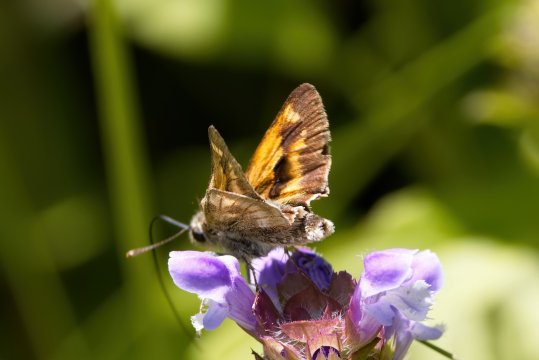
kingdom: Animalia
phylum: Arthropoda
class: Insecta
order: Lepidoptera
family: Hesperiidae
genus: Polites
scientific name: Polites
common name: Long Dash Skipper
